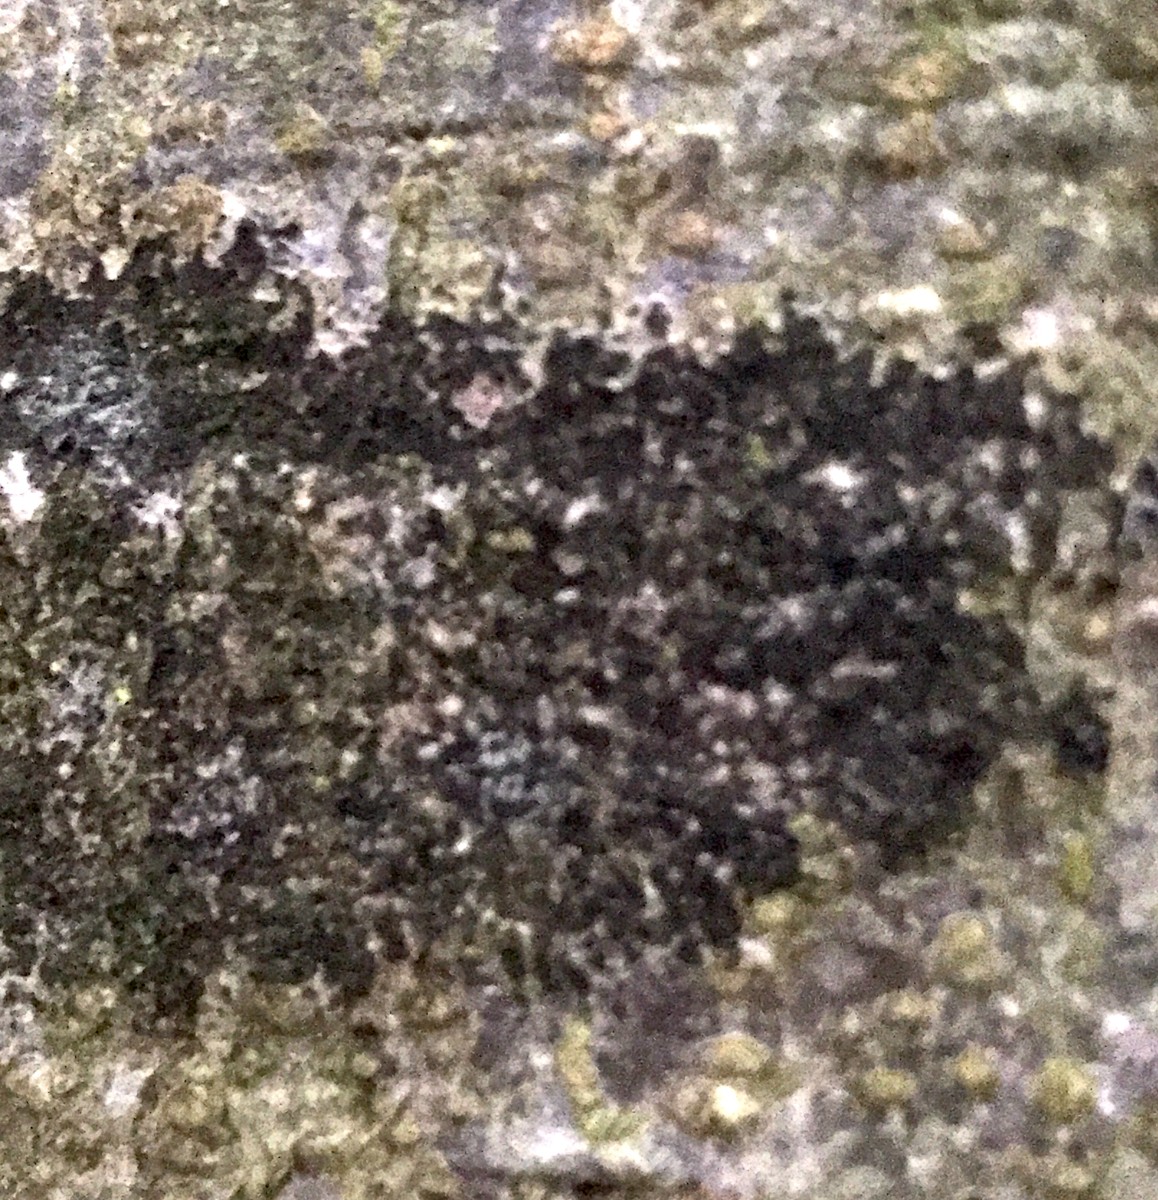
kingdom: Fungi
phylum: Ascomycota
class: Leotiomycetes
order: Rhytismatales
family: Ascodichaenaceae
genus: Ascodichaena
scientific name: Ascodichaena rugosa
